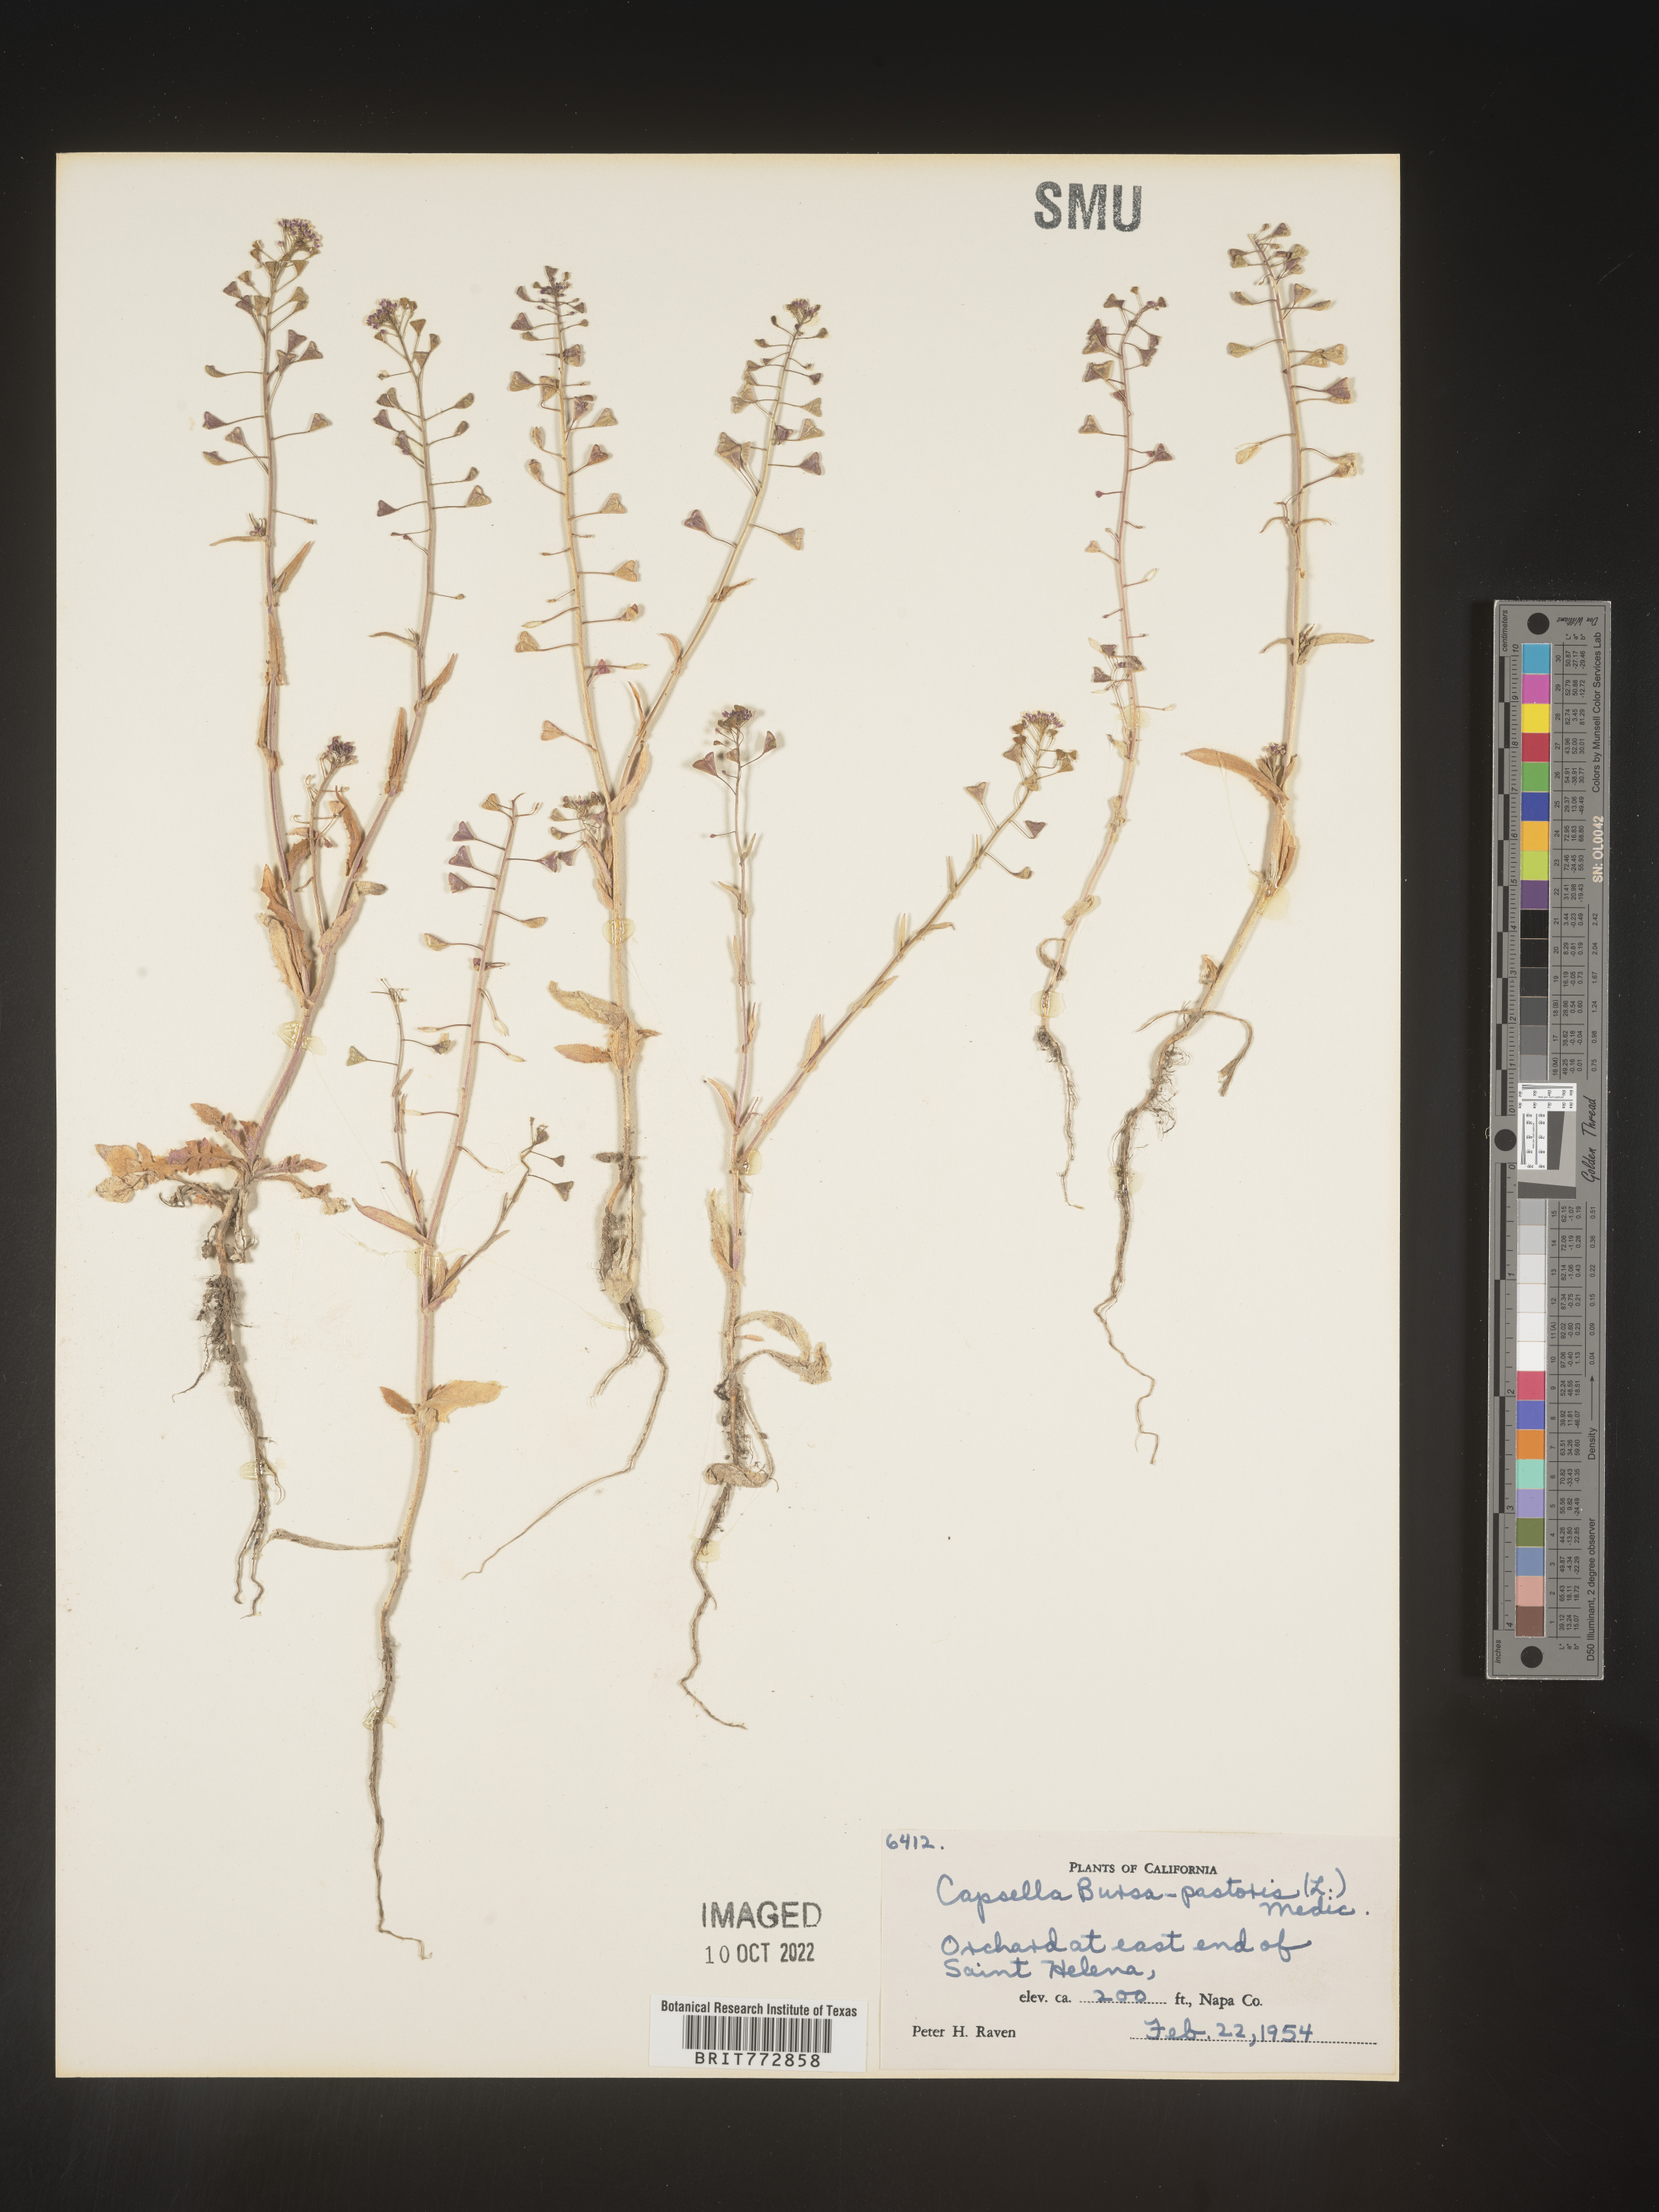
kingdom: Plantae
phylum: Tracheophyta
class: Magnoliopsida
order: Brassicales
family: Brassicaceae
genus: Capsella
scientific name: Capsella bursa-pastoris
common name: Shepherd's purse
